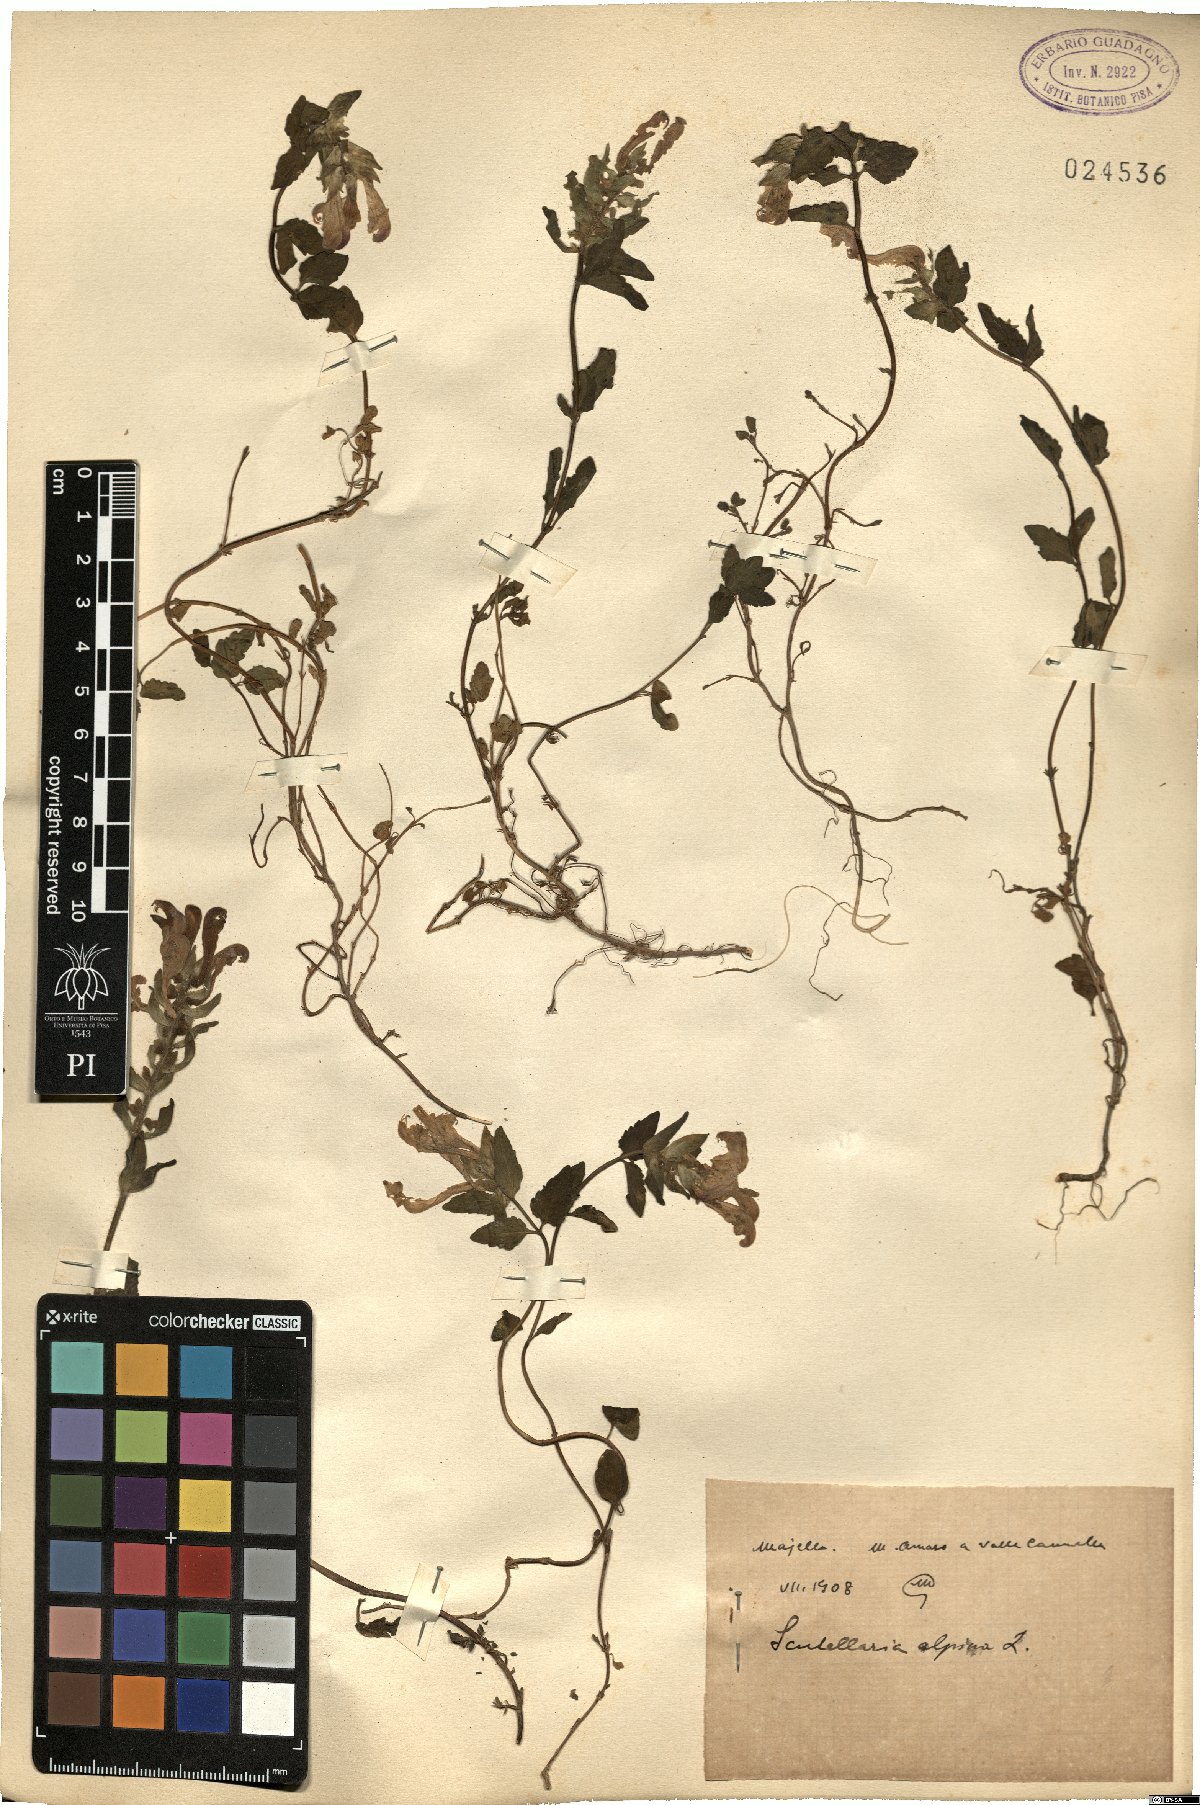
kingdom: Plantae
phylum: Tracheophyta
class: Magnoliopsida
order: Lamiales
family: Lamiaceae
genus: Scutellaria
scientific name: Scutellaria alpina
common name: Alpine scullcap
